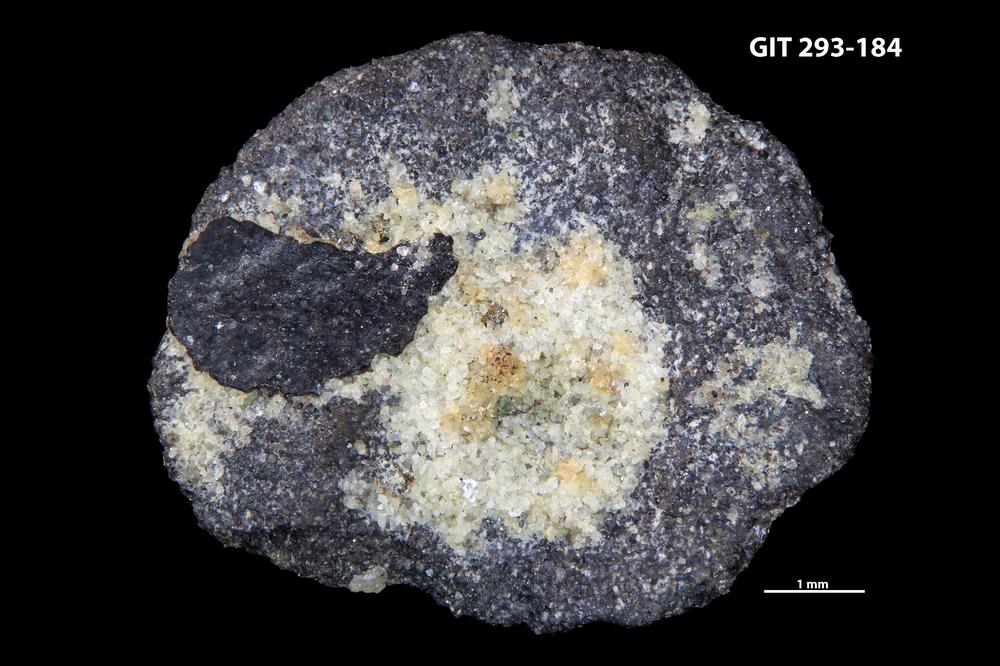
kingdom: Animalia
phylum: Mollusca
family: Aldanellidae
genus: Aldanella
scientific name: Aldanella
